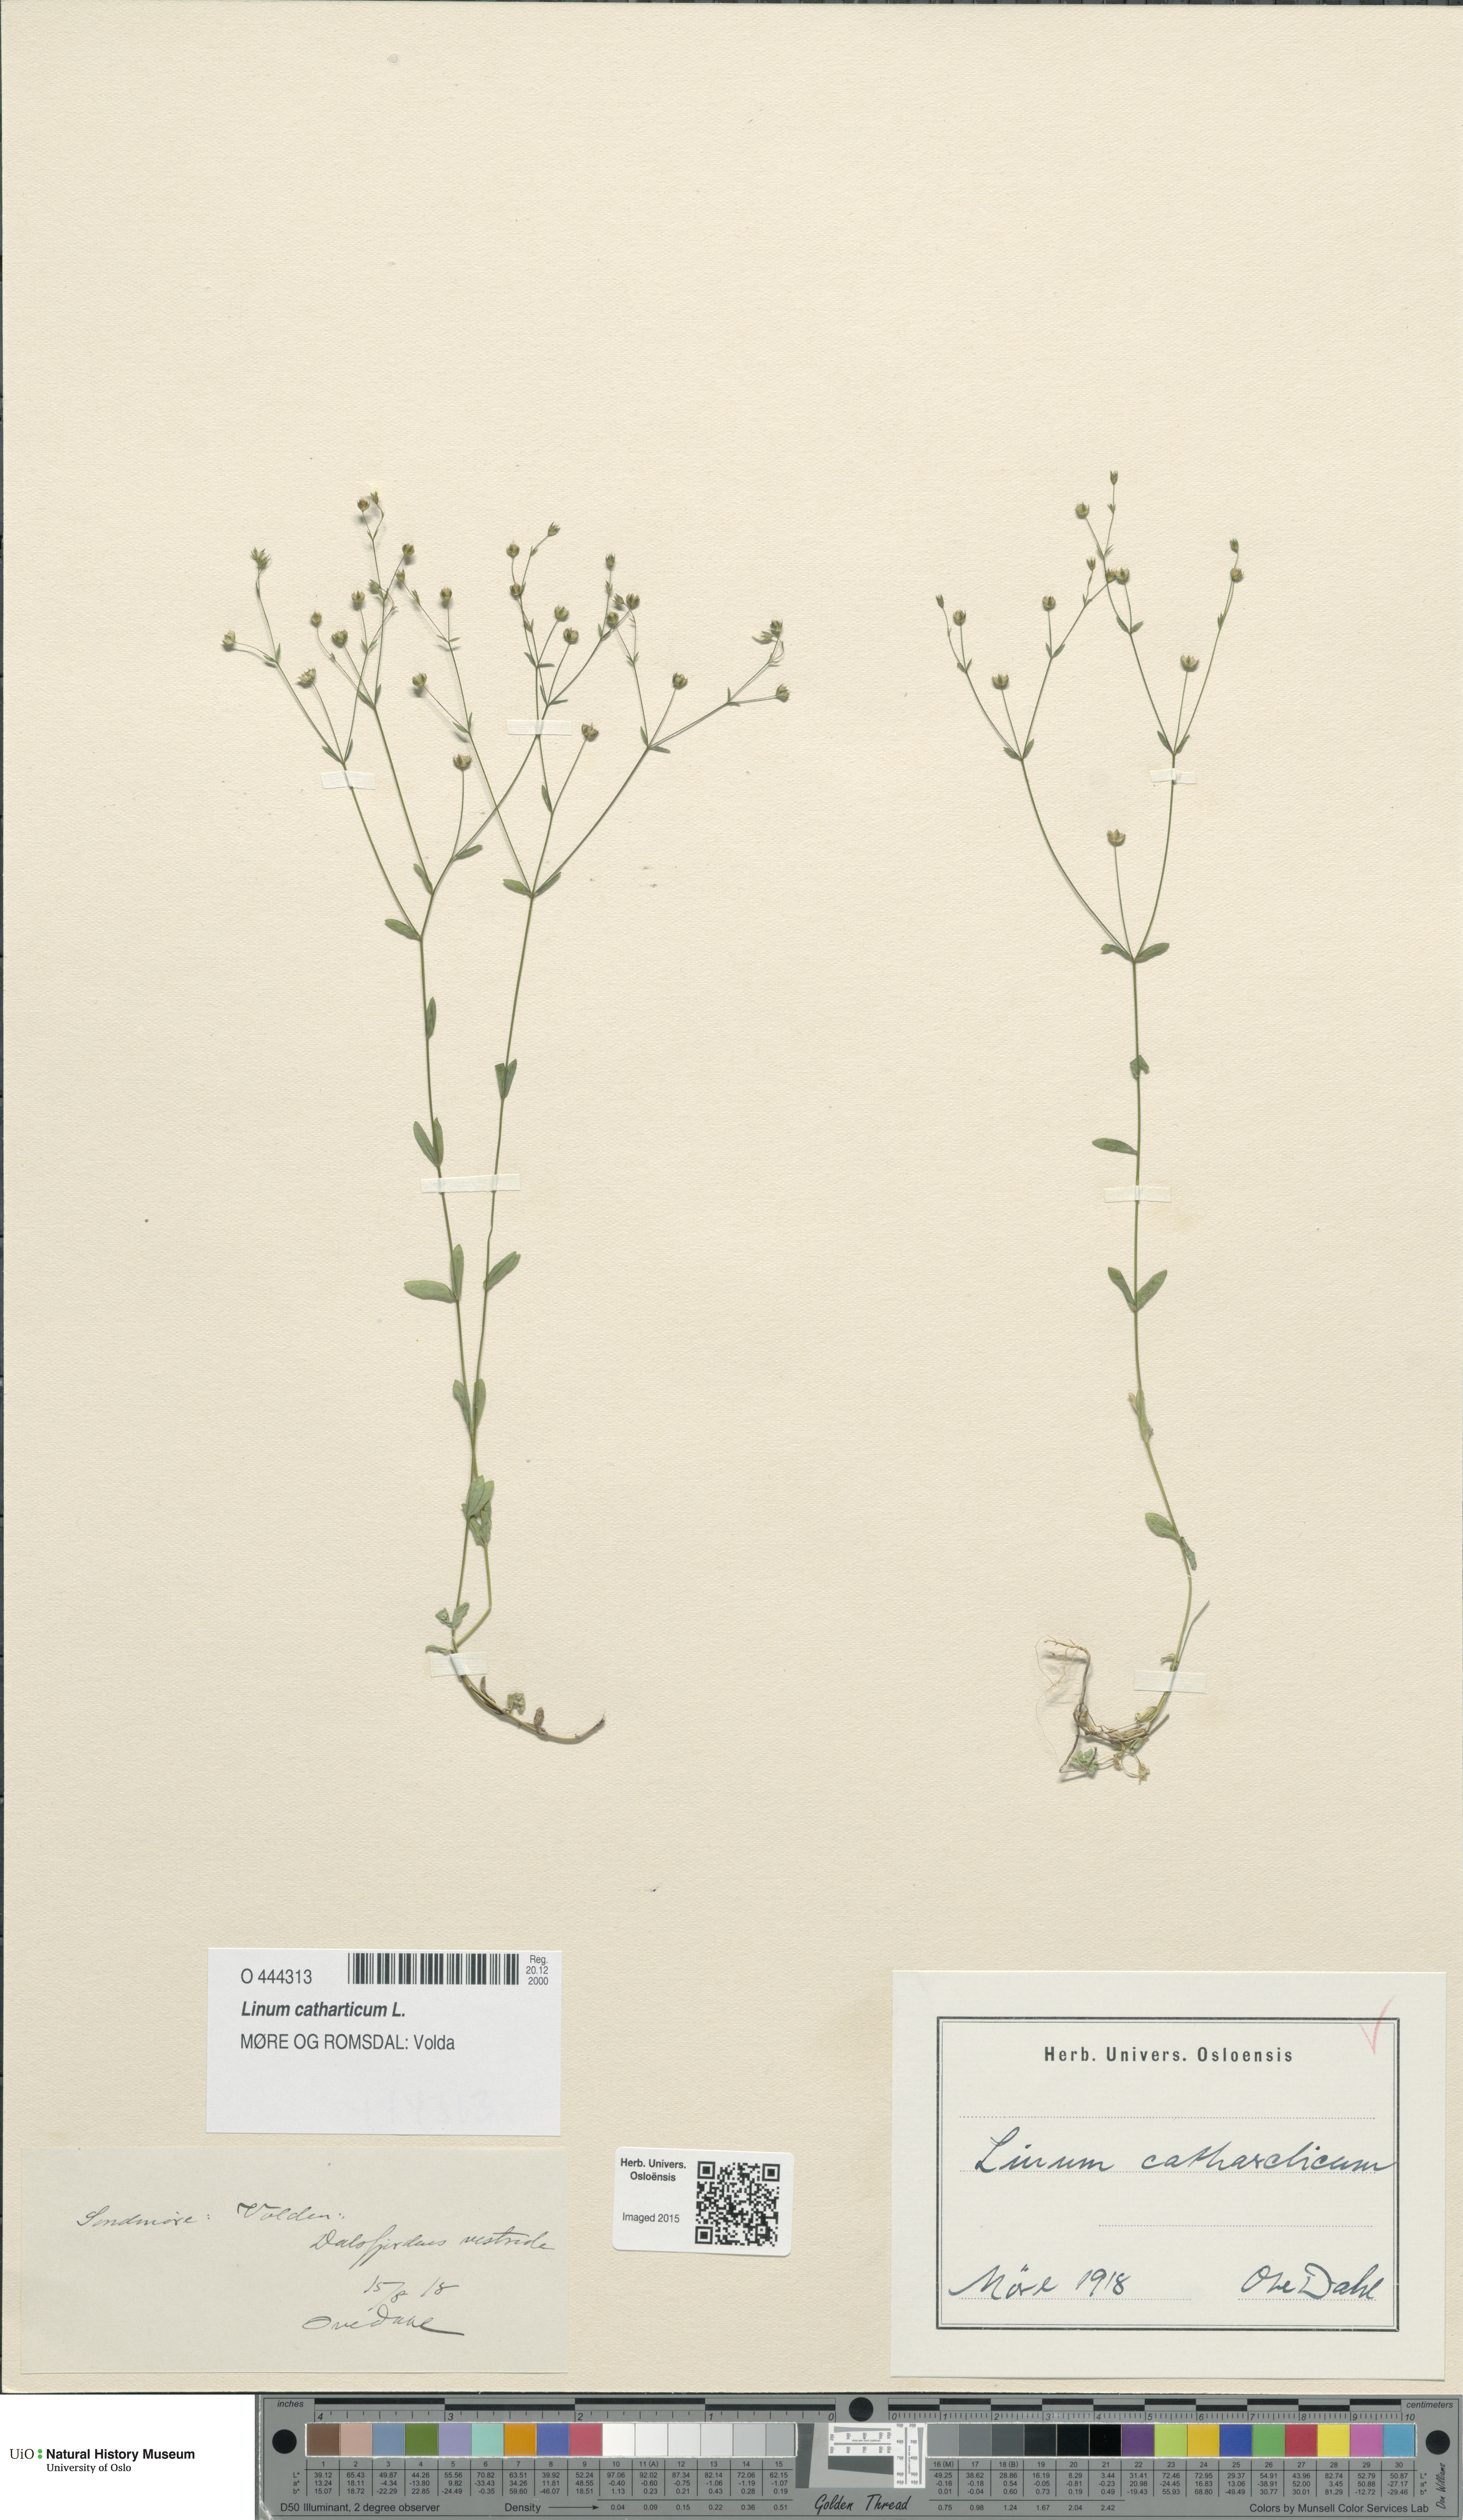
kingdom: Plantae
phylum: Tracheophyta
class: Magnoliopsida
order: Malpighiales
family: Linaceae
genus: Linum
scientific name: Linum catharticum
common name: Fairy flax
